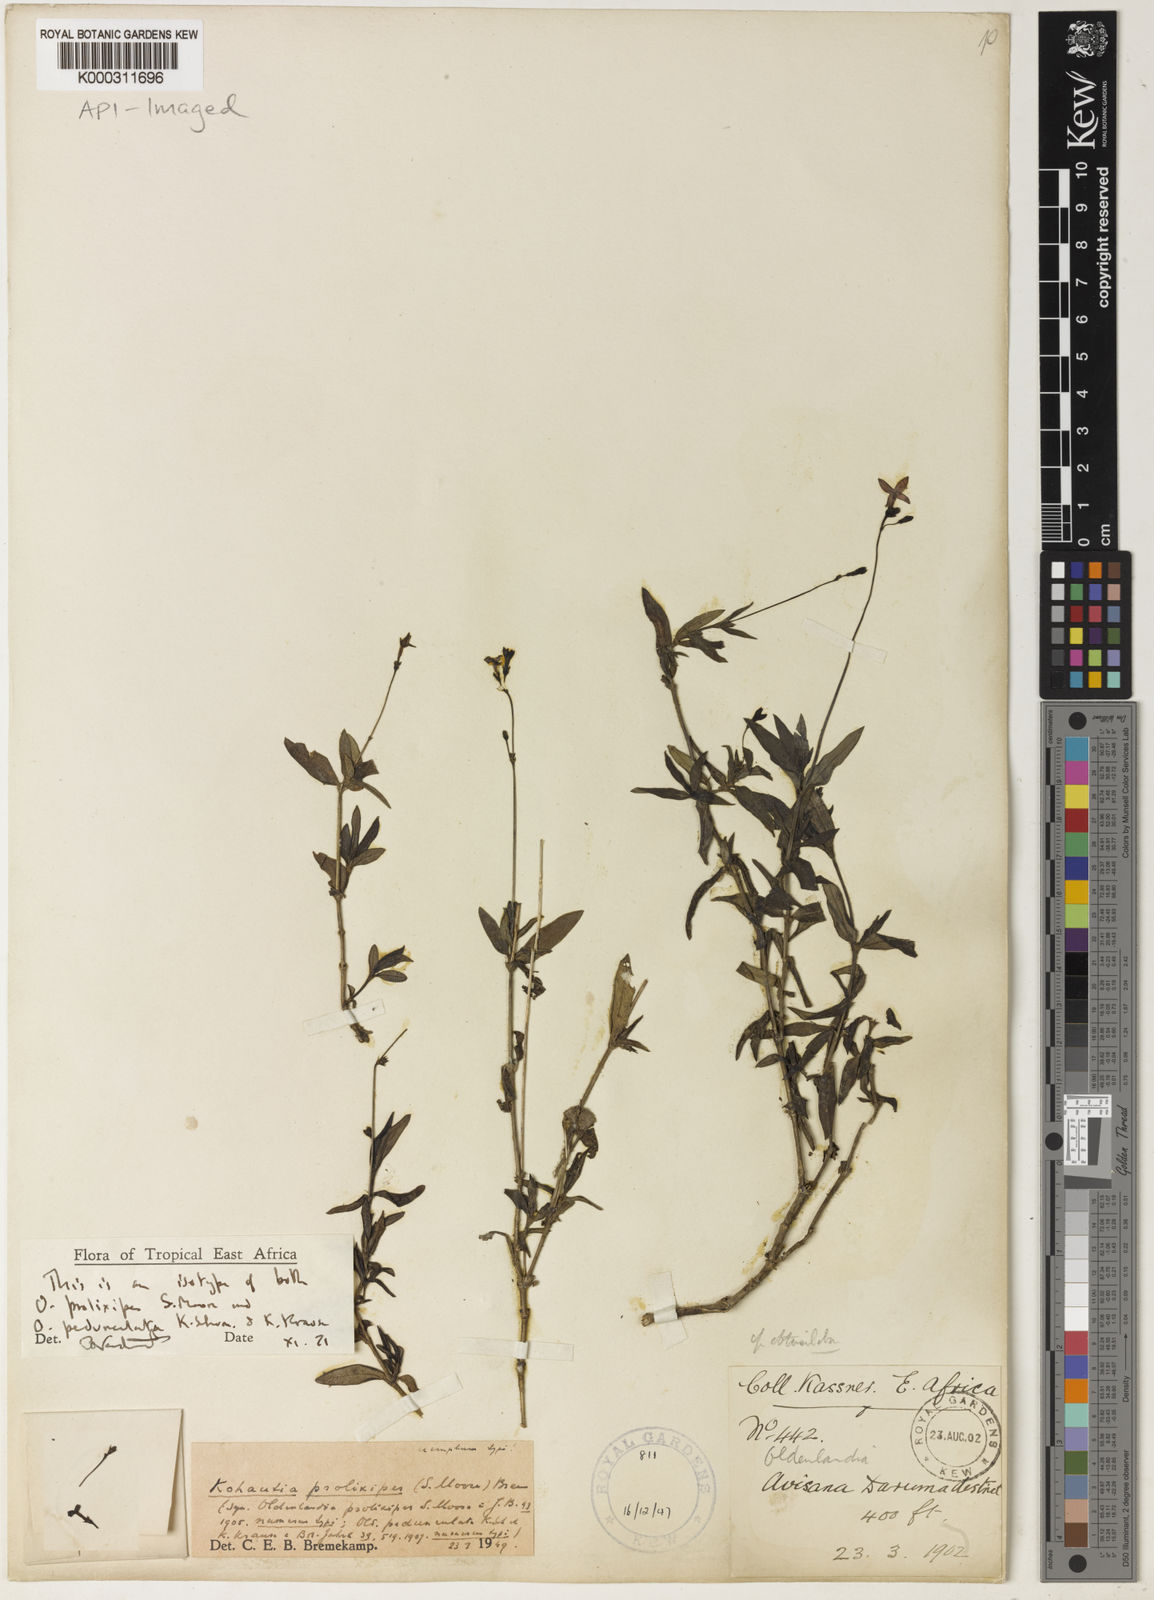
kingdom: Plantae
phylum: Tracheophyta
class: Magnoliopsida
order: Gentianales
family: Rubiaceae
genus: Cordylostigma
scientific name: Cordylostigma prolixipes
